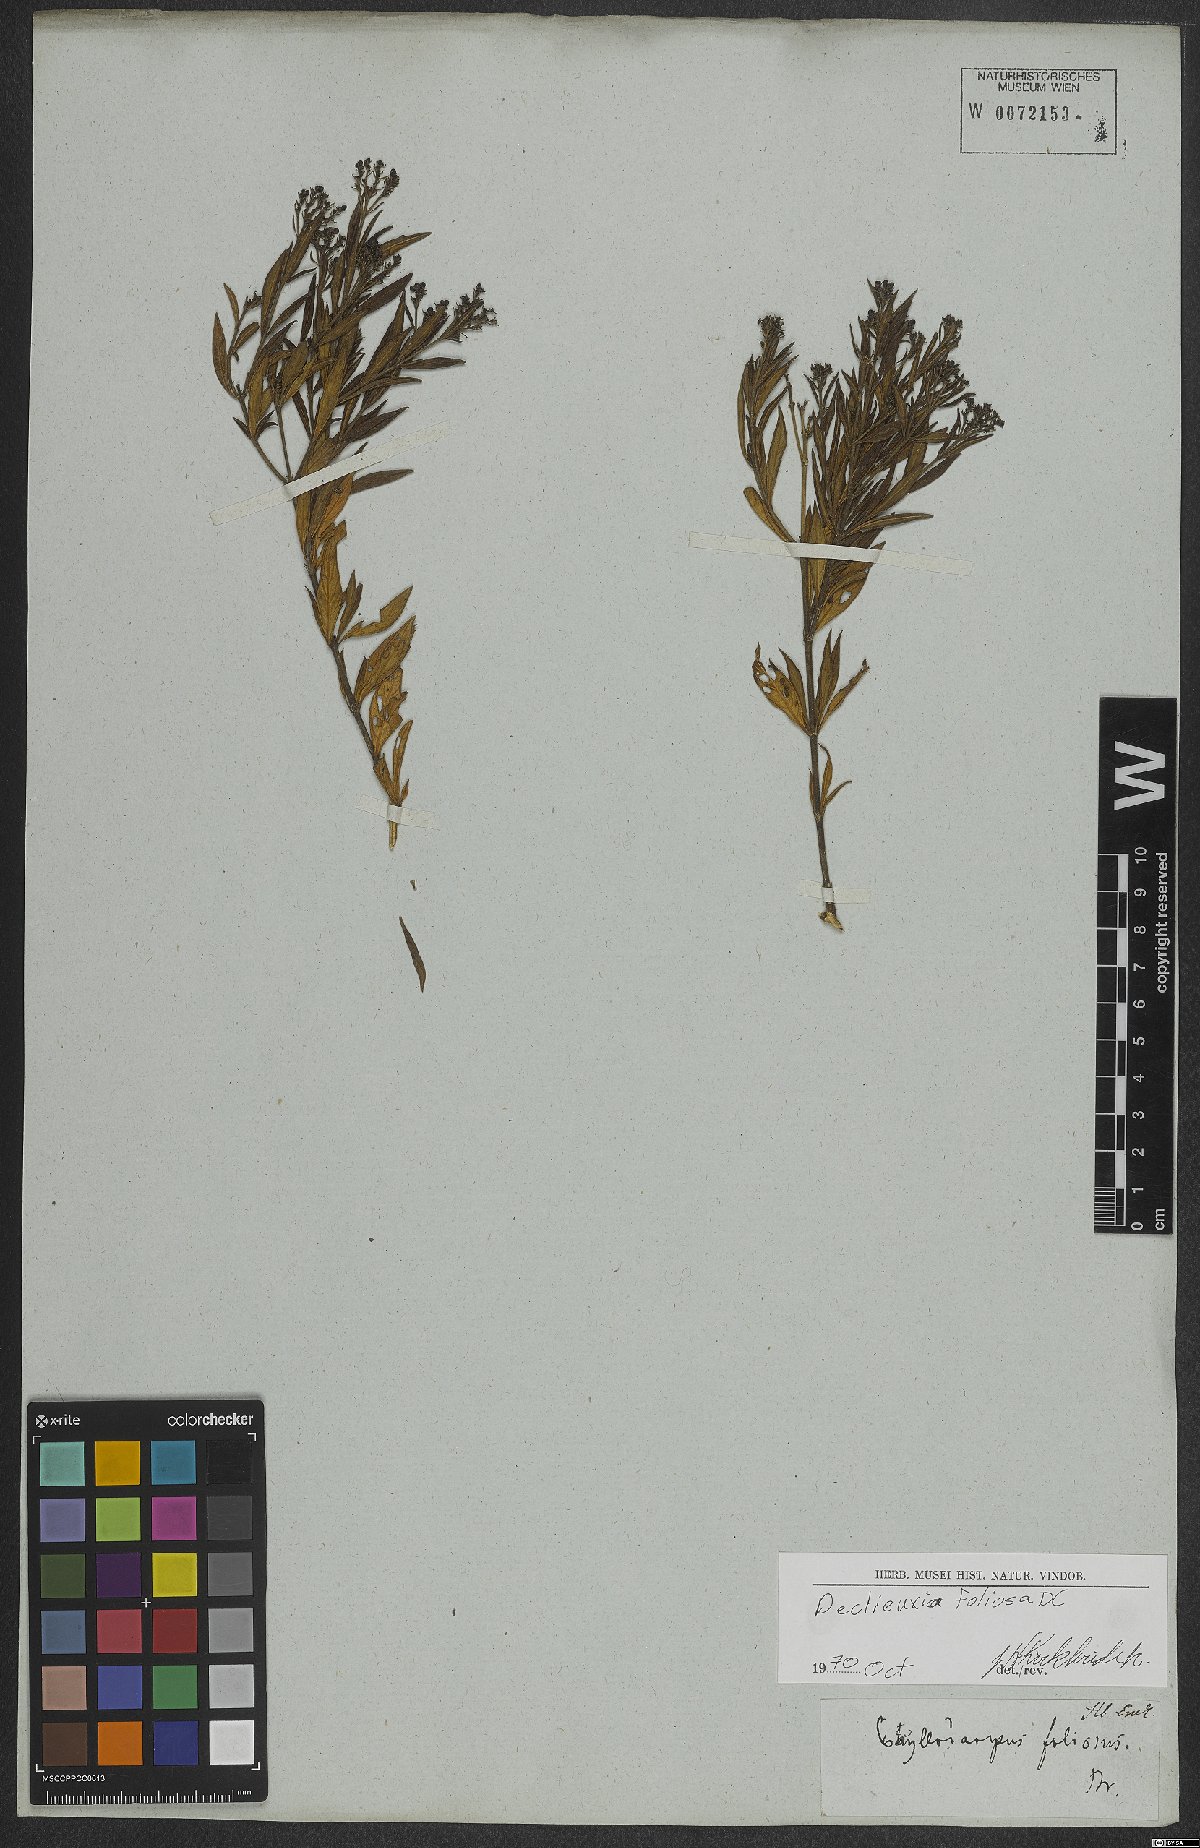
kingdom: Plantae
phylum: Tracheophyta
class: Magnoliopsida
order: Gentianales
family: Rubiaceae
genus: Declieuxia
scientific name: Declieuxia fruticosa
